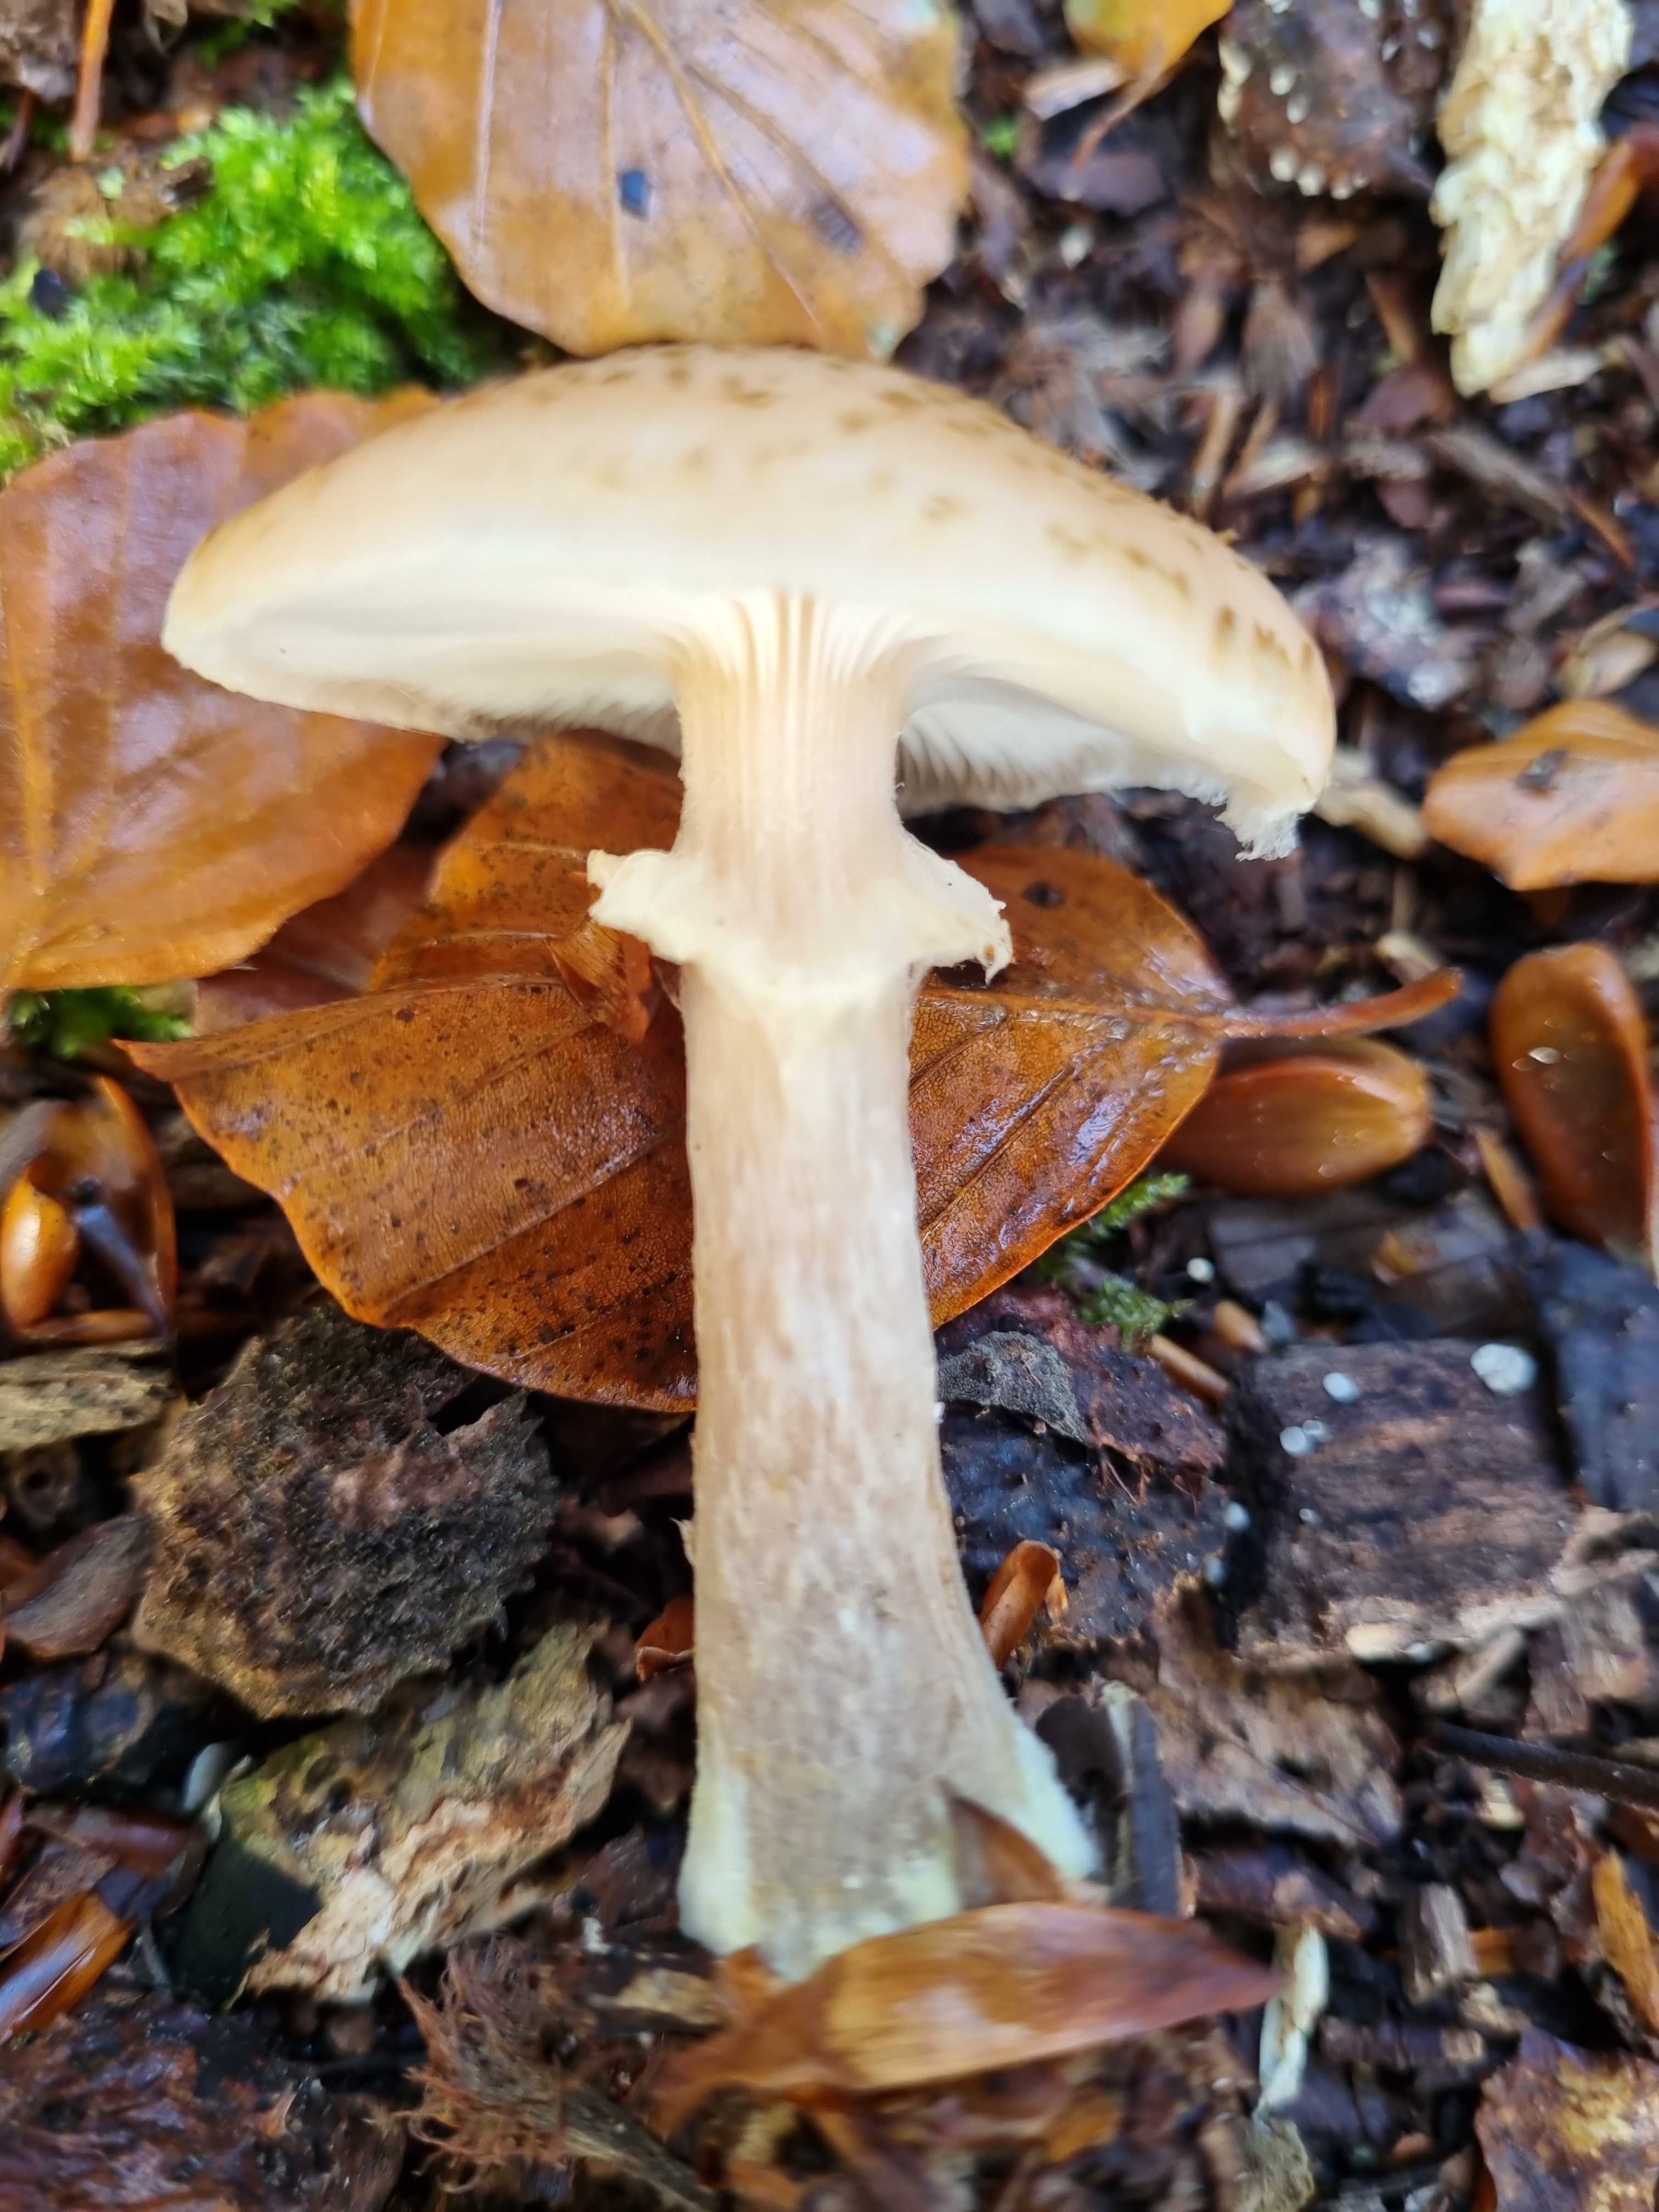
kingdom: Fungi
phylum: Basidiomycota
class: Agaricomycetes
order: Agaricales
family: Physalacriaceae
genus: Armillaria
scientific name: Armillaria lutea
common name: køllestokket honningsvamp
